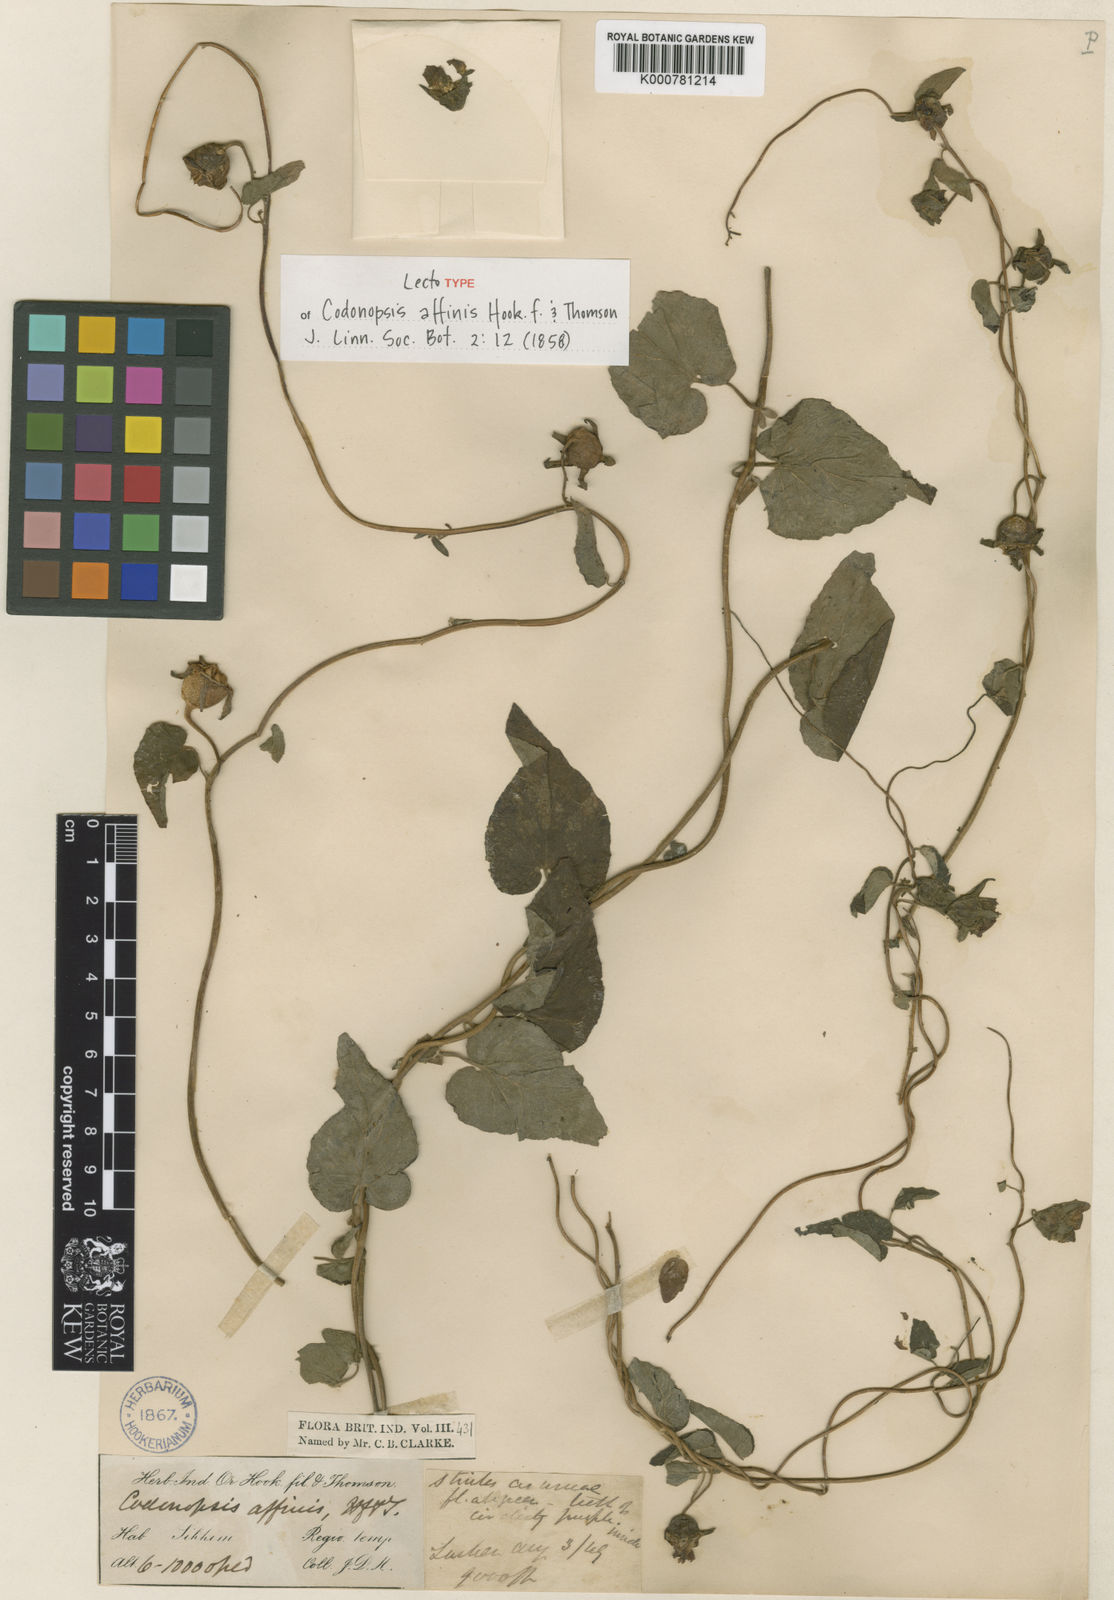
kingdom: Plantae
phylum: Tracheophyta
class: Magnoliopsida
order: Asterales
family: Campanulaceae
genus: Codonopsis
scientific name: Codonopsis affinis
